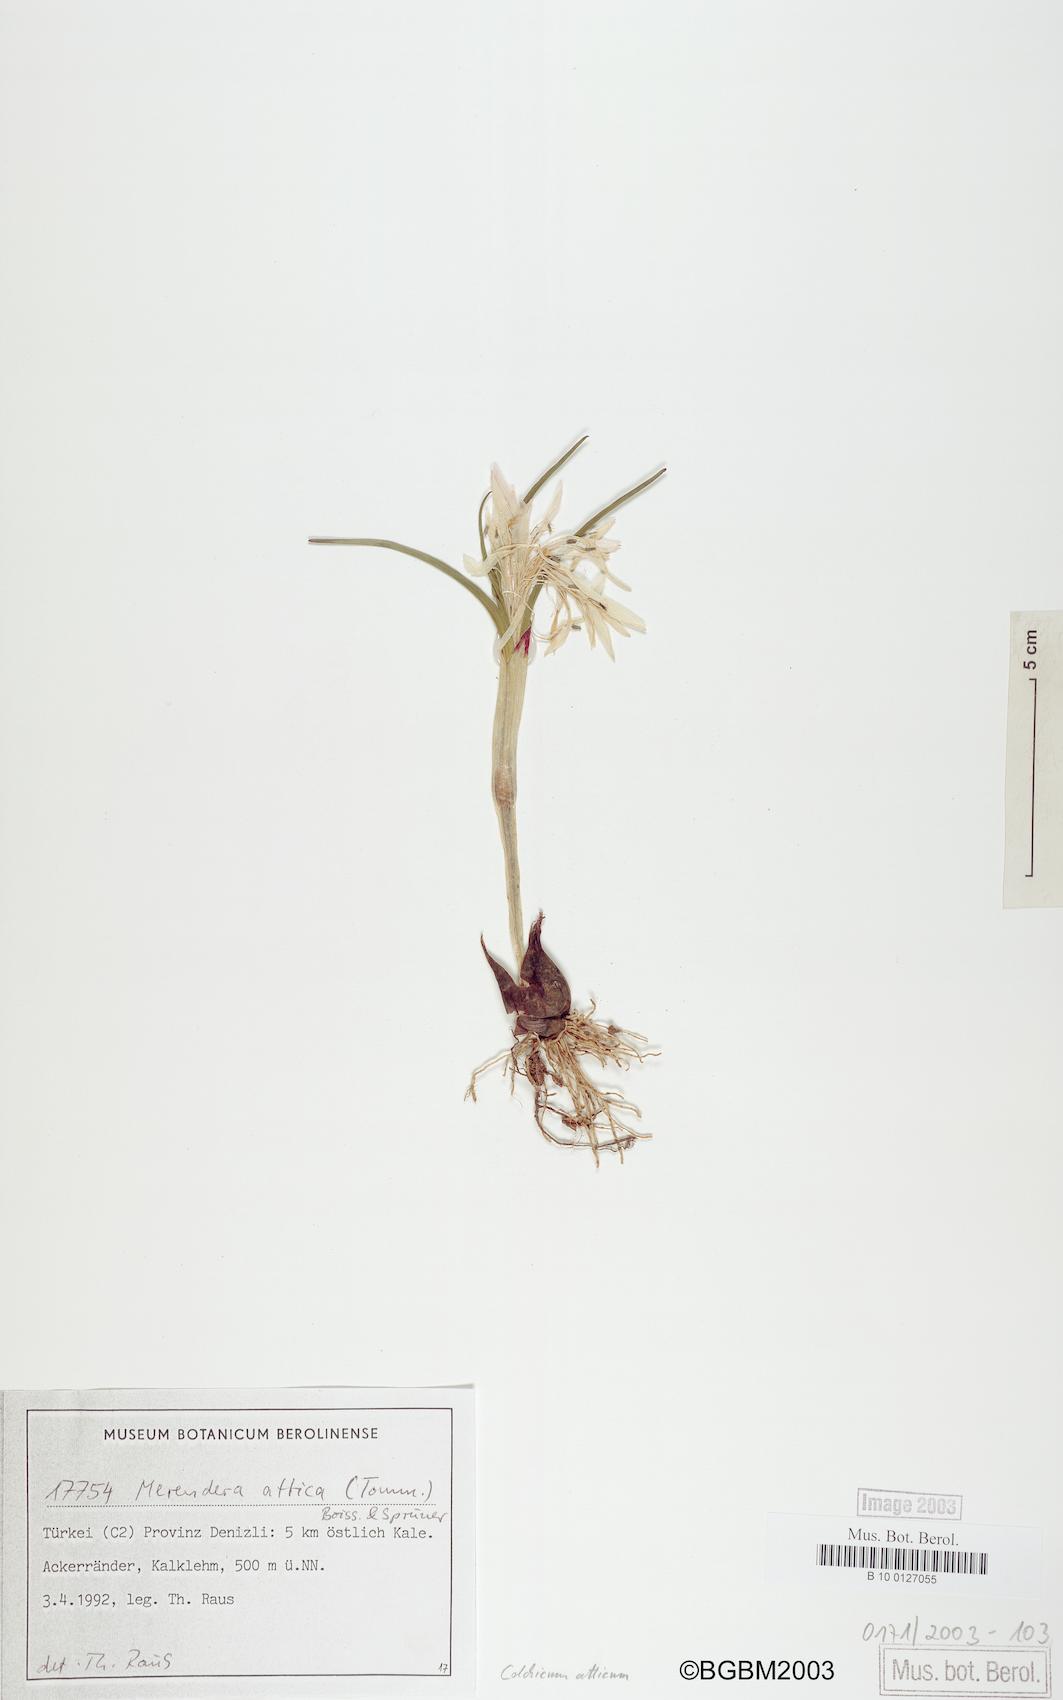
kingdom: Plantae
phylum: Tracheophyta
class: Liliopsida
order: Liliales
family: Colchicaceae
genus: Colchicum
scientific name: Colchicum atticum
